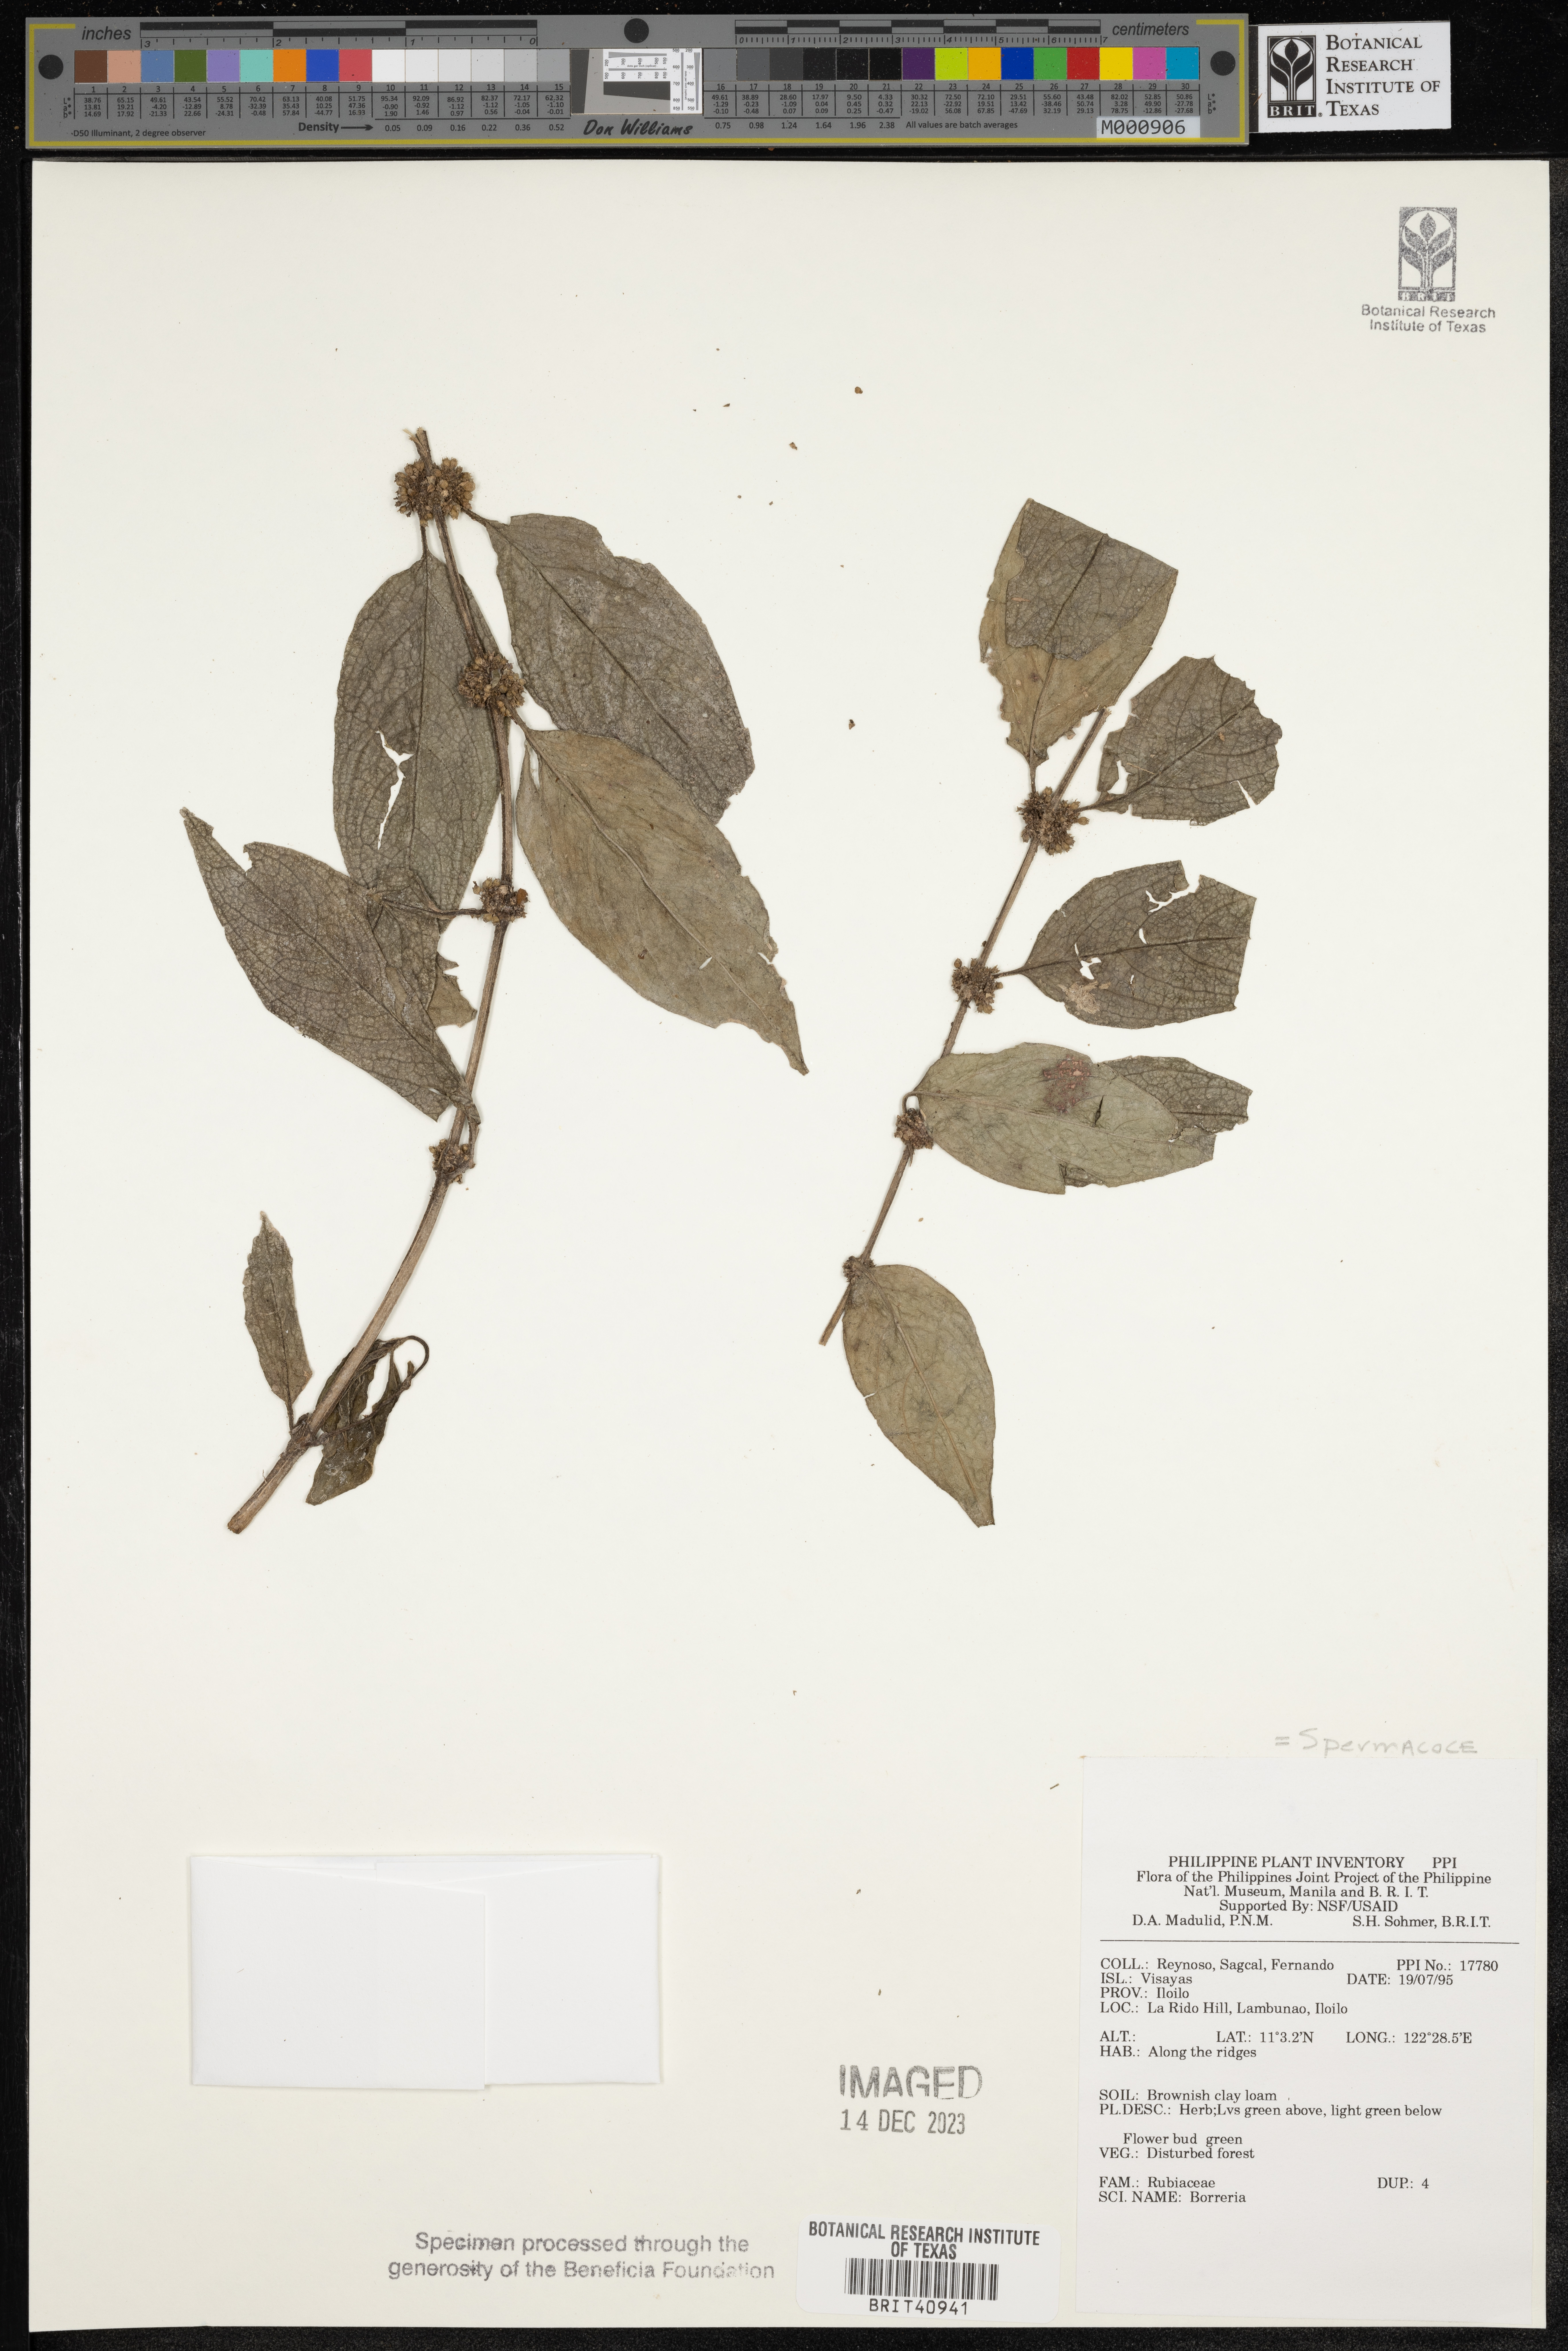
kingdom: Plantae
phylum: Tracheophyta
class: Magnoliopsida
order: Gentianales
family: Rubiaceae
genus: Spermacoce
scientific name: Spermacoce
